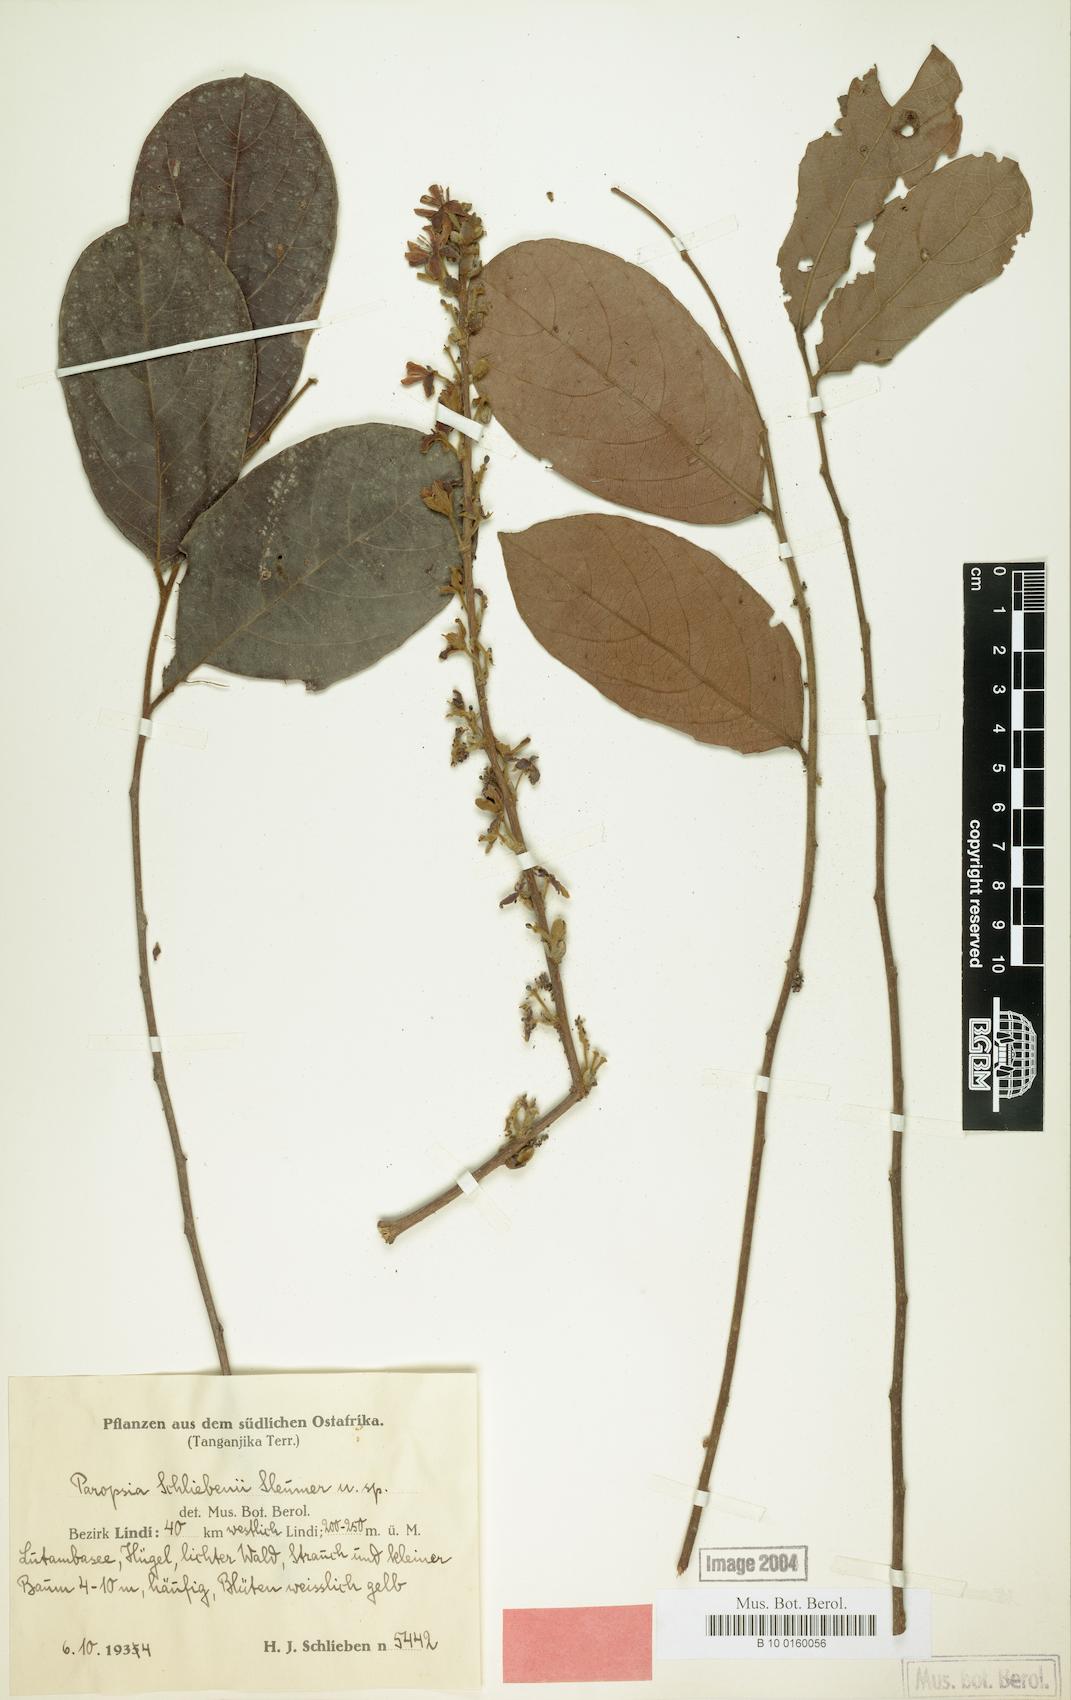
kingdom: Plantae
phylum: Tracheophyta
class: Magnoliopsida
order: Malpighiales
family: Passifloraceae
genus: Paropsia
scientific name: Paropsia braunii
